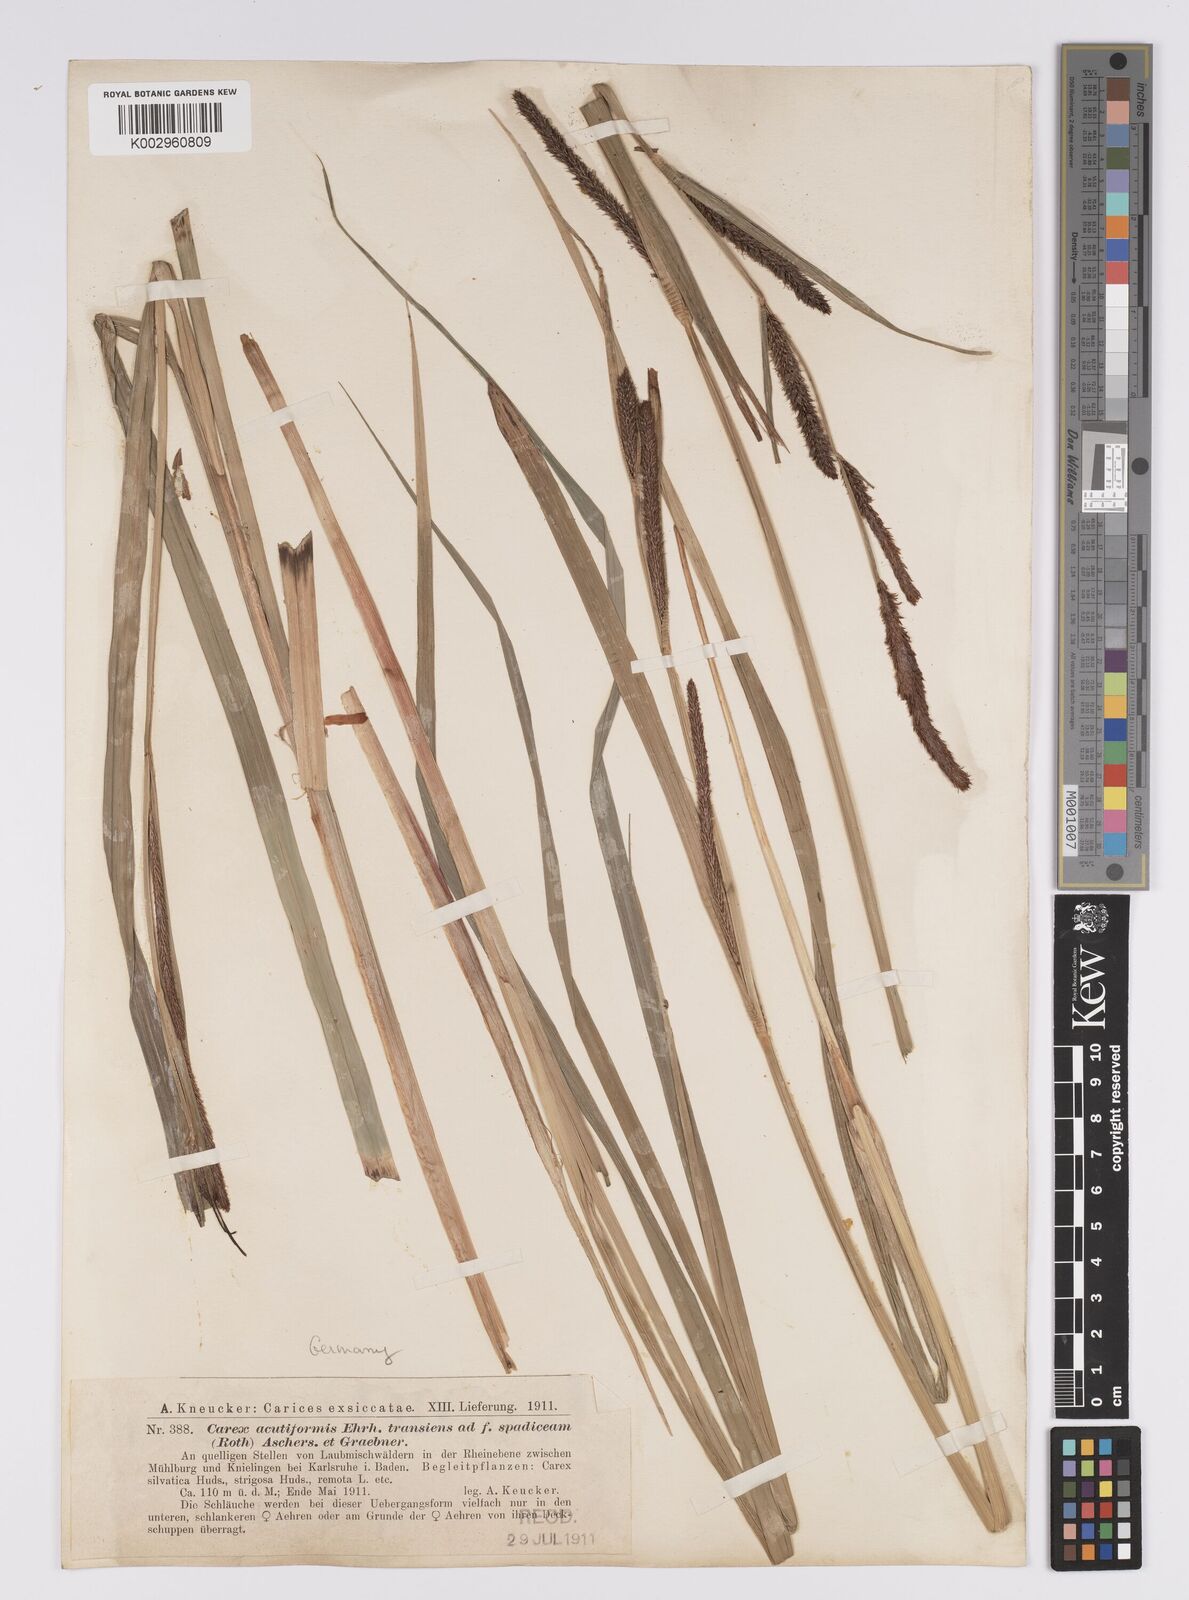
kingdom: Plantae
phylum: Tracheophyta
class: Liliopsida
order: Poales
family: Cyperaceae
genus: Carex
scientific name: Carex acutiformis
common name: Lesser pond-sedge
